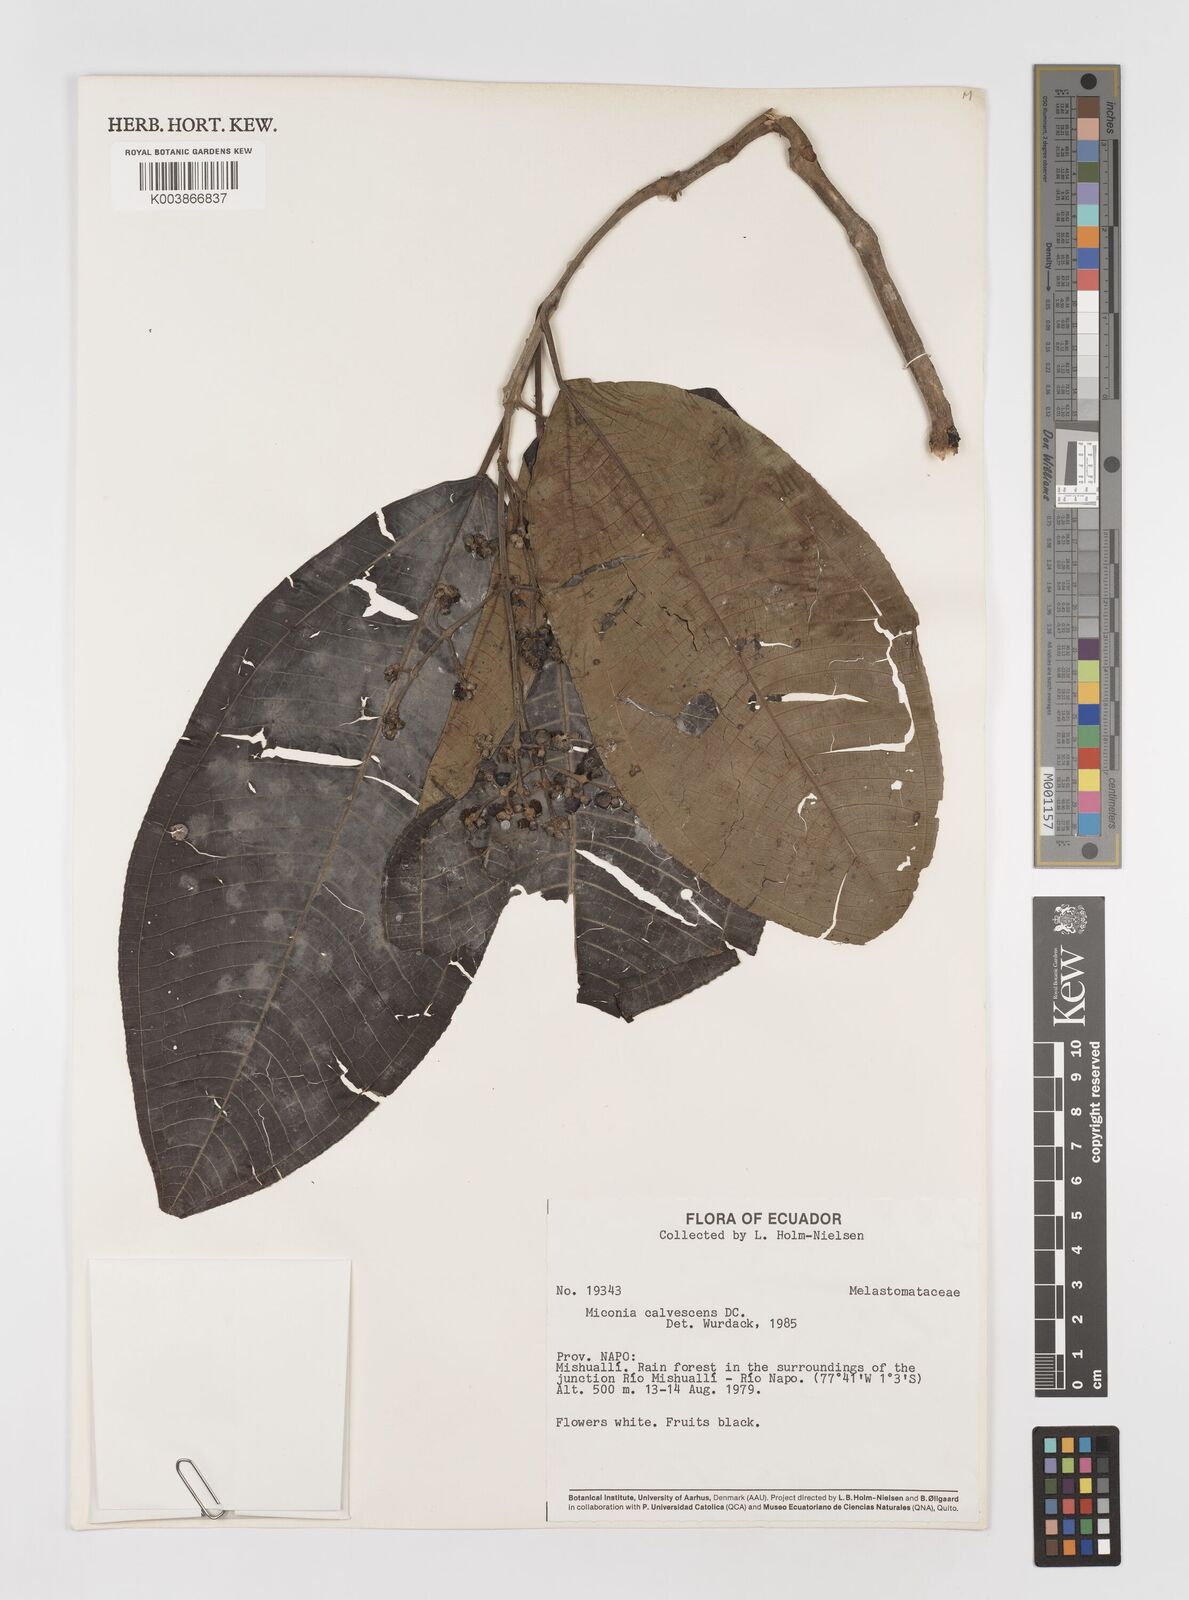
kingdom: Plantae
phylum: Tracheophyta
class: Magnoliopsida
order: Myrtales
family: Melastomataceae
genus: Miconia
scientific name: Miconia calvescens
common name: Purple plague
